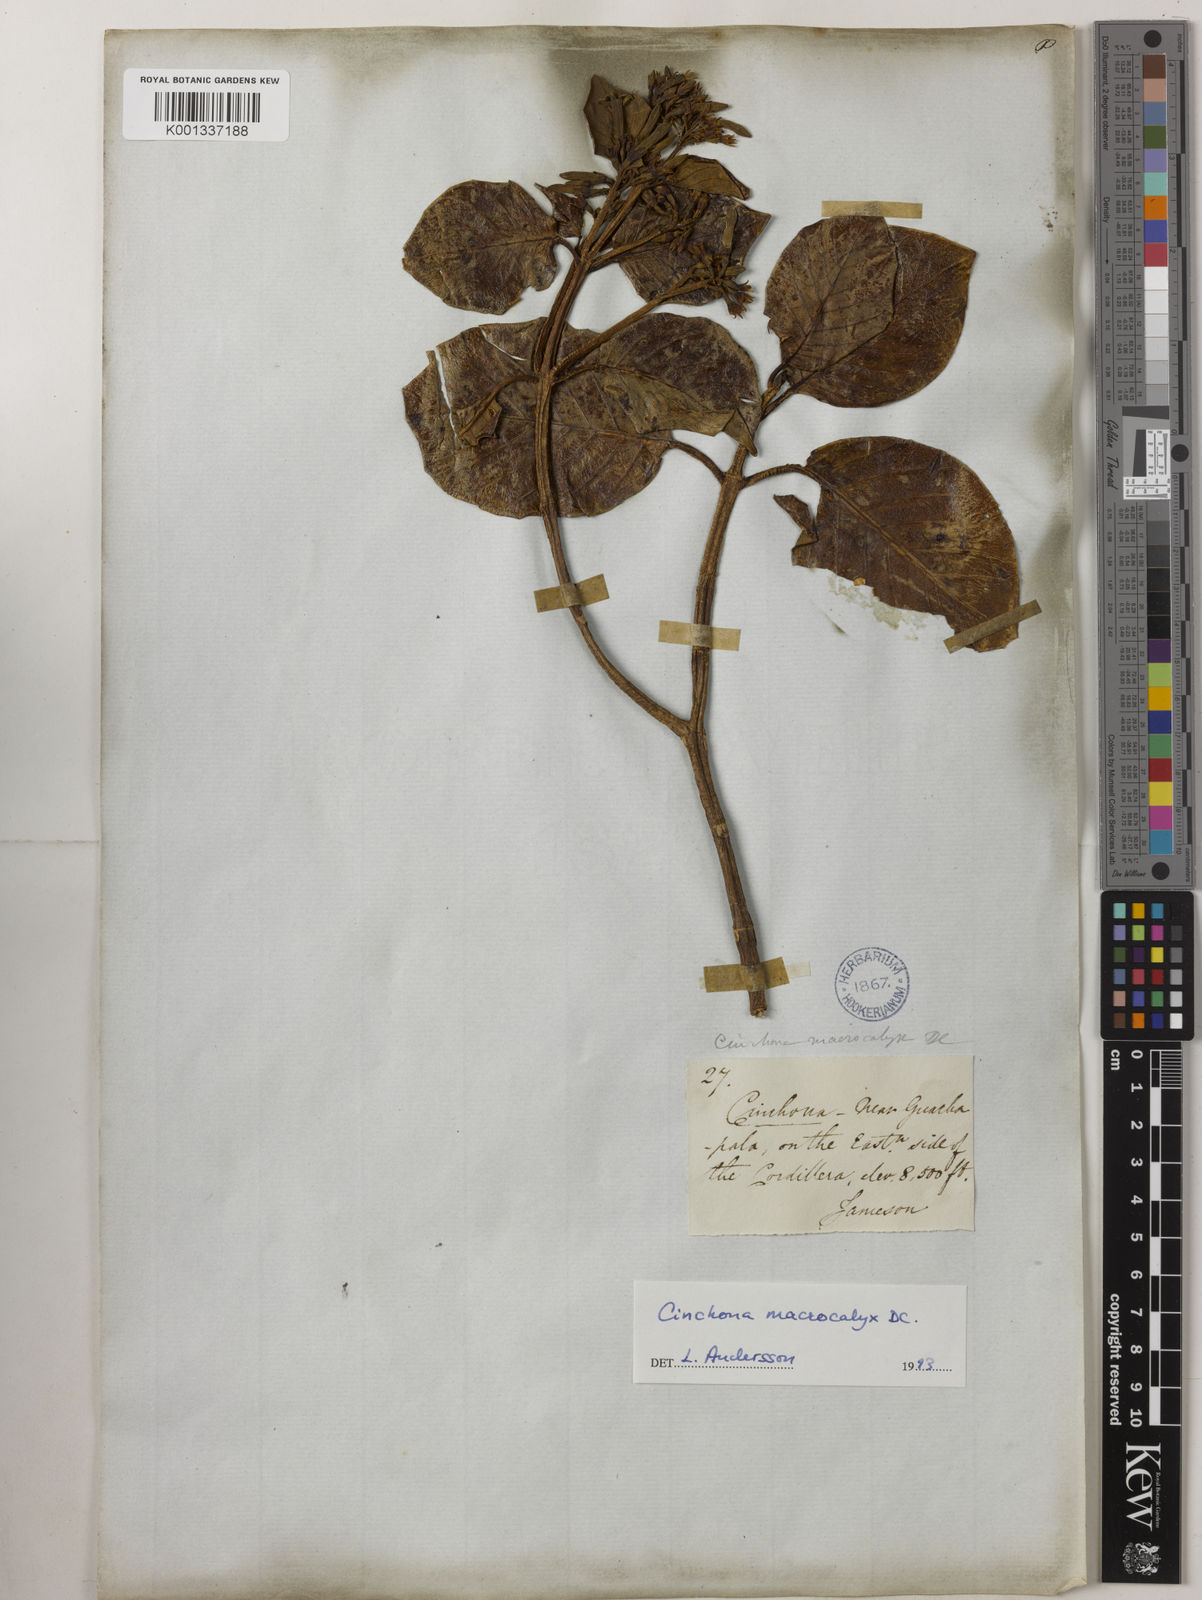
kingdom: Plantae
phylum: Tracheophyta
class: Magnoliopsida
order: Gentianales
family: Rubiaceae
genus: Cinchona
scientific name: Cinchona macrocalyx
